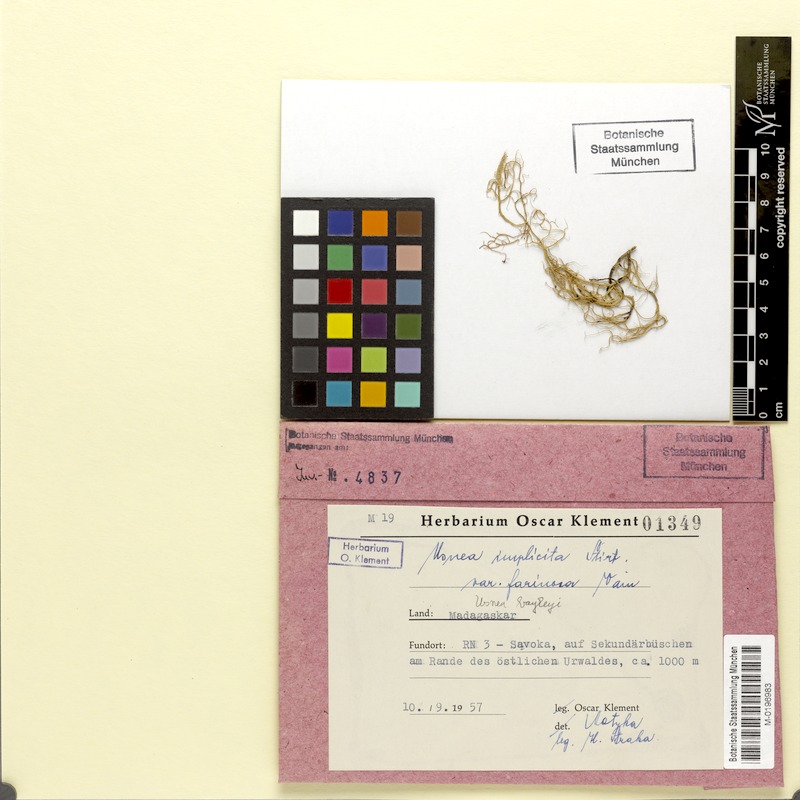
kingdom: Fungi
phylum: Ascomycota
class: Lecanoromycetes
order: Lecanorales
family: Parmeliaceae
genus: Eumitria
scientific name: Eumitria baileyi
